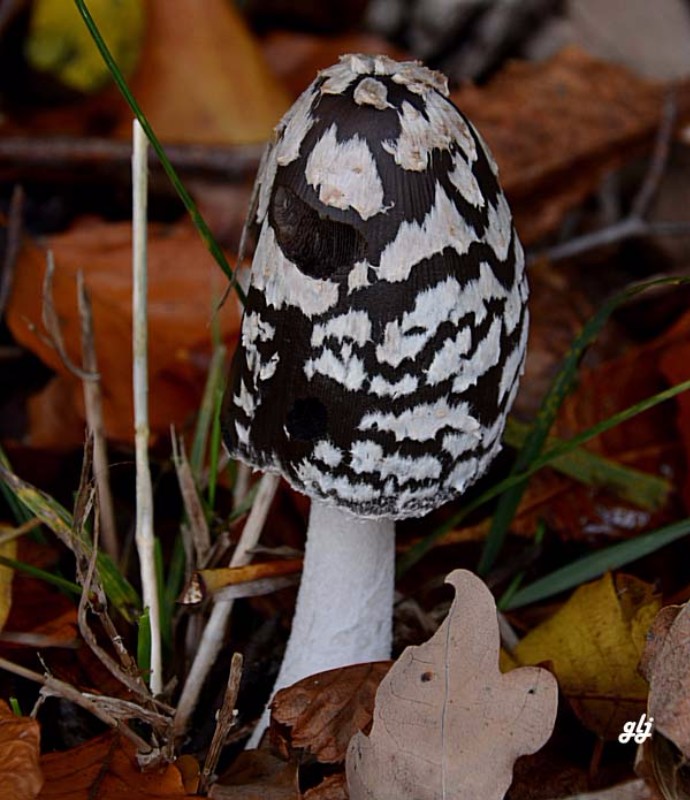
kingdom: Fungi
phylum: Basidiomycota
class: Agaricomycetes
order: Agaricales
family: Psathyrellaceae
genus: Coprinopsis
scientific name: Coprinopsis picacea
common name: skade-blækhat
